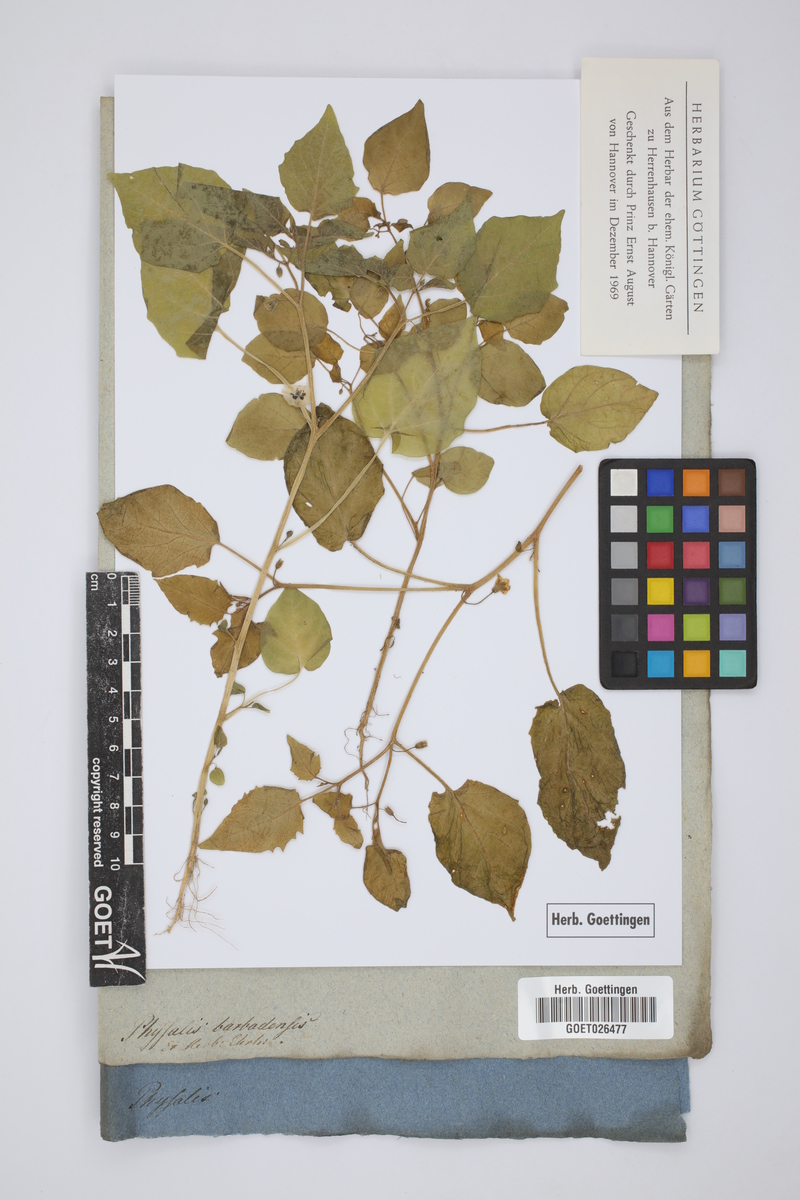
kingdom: Plantae
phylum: Tracheophyta
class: Magnoliopsida
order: Solanales
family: Solanaceae
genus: Physalis
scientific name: Physalis pubescens
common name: Downy ground-cherry
